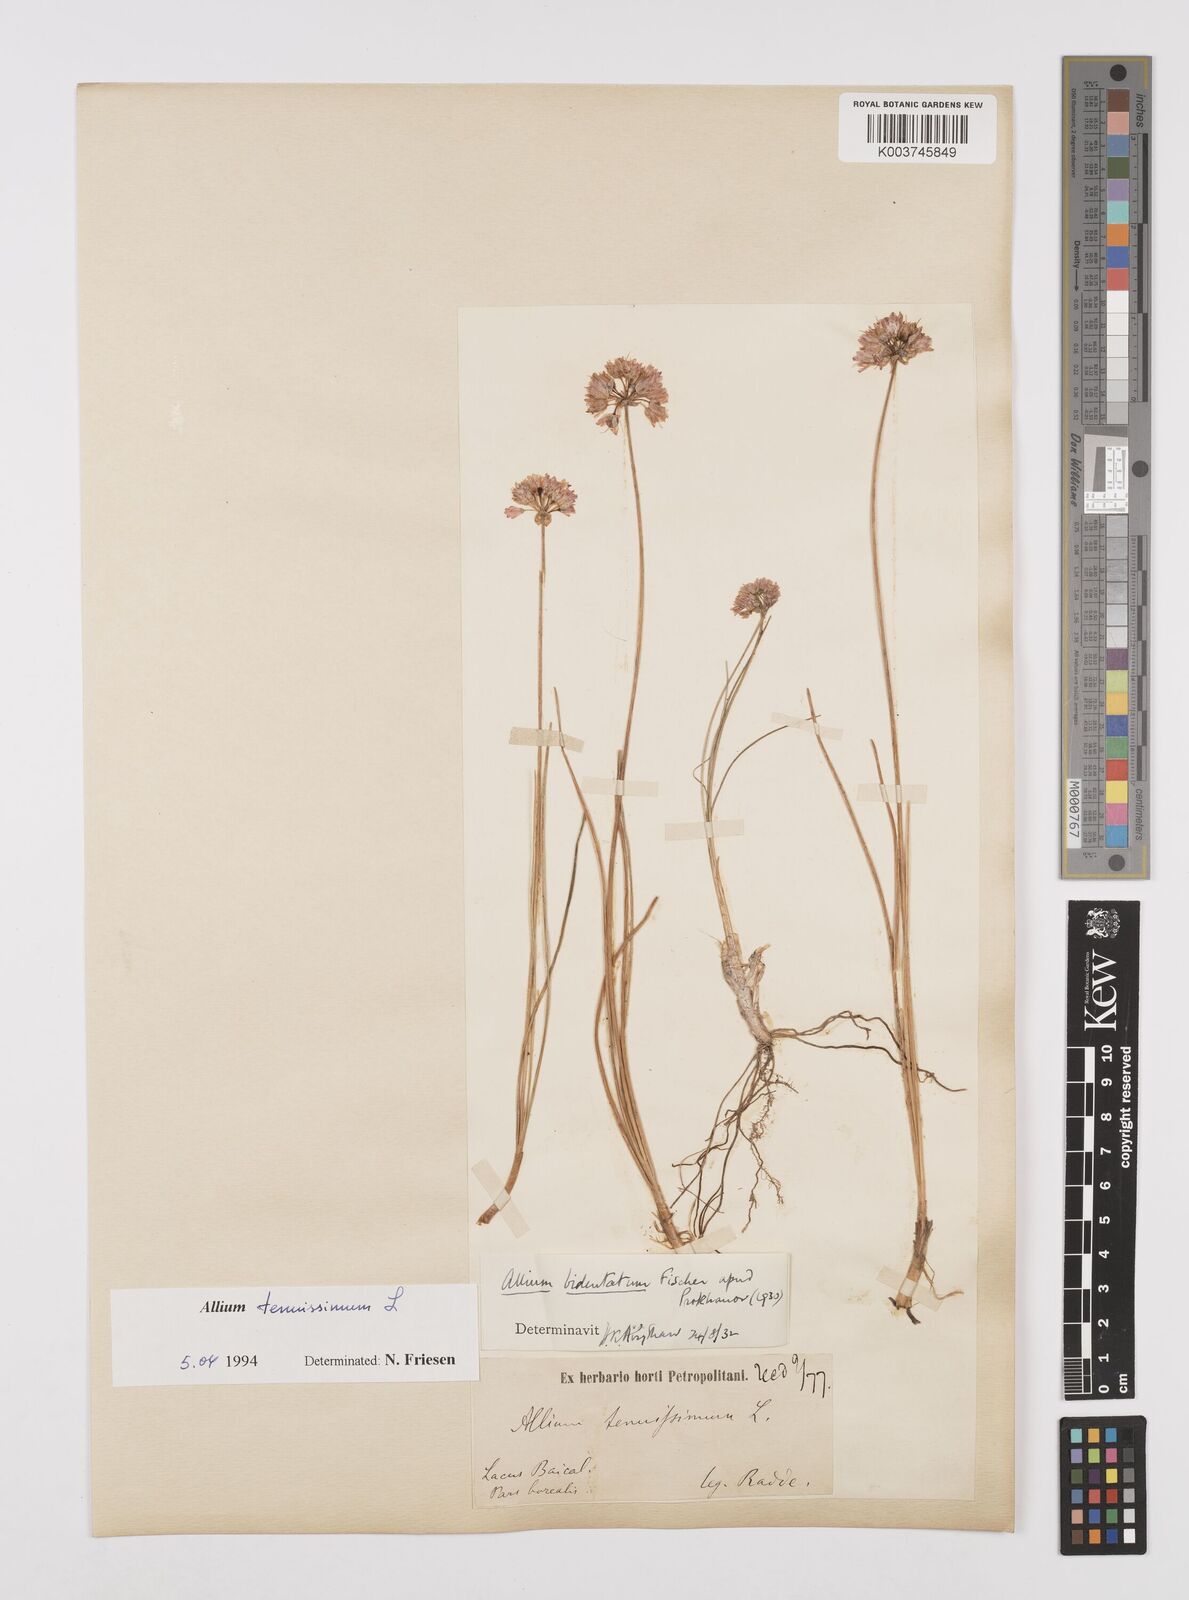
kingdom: Plantae
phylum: Tracheophyta
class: Liliopsida
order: Asparagales
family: Amaryllidaceae
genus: Allium
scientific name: Allium tenuissimum
